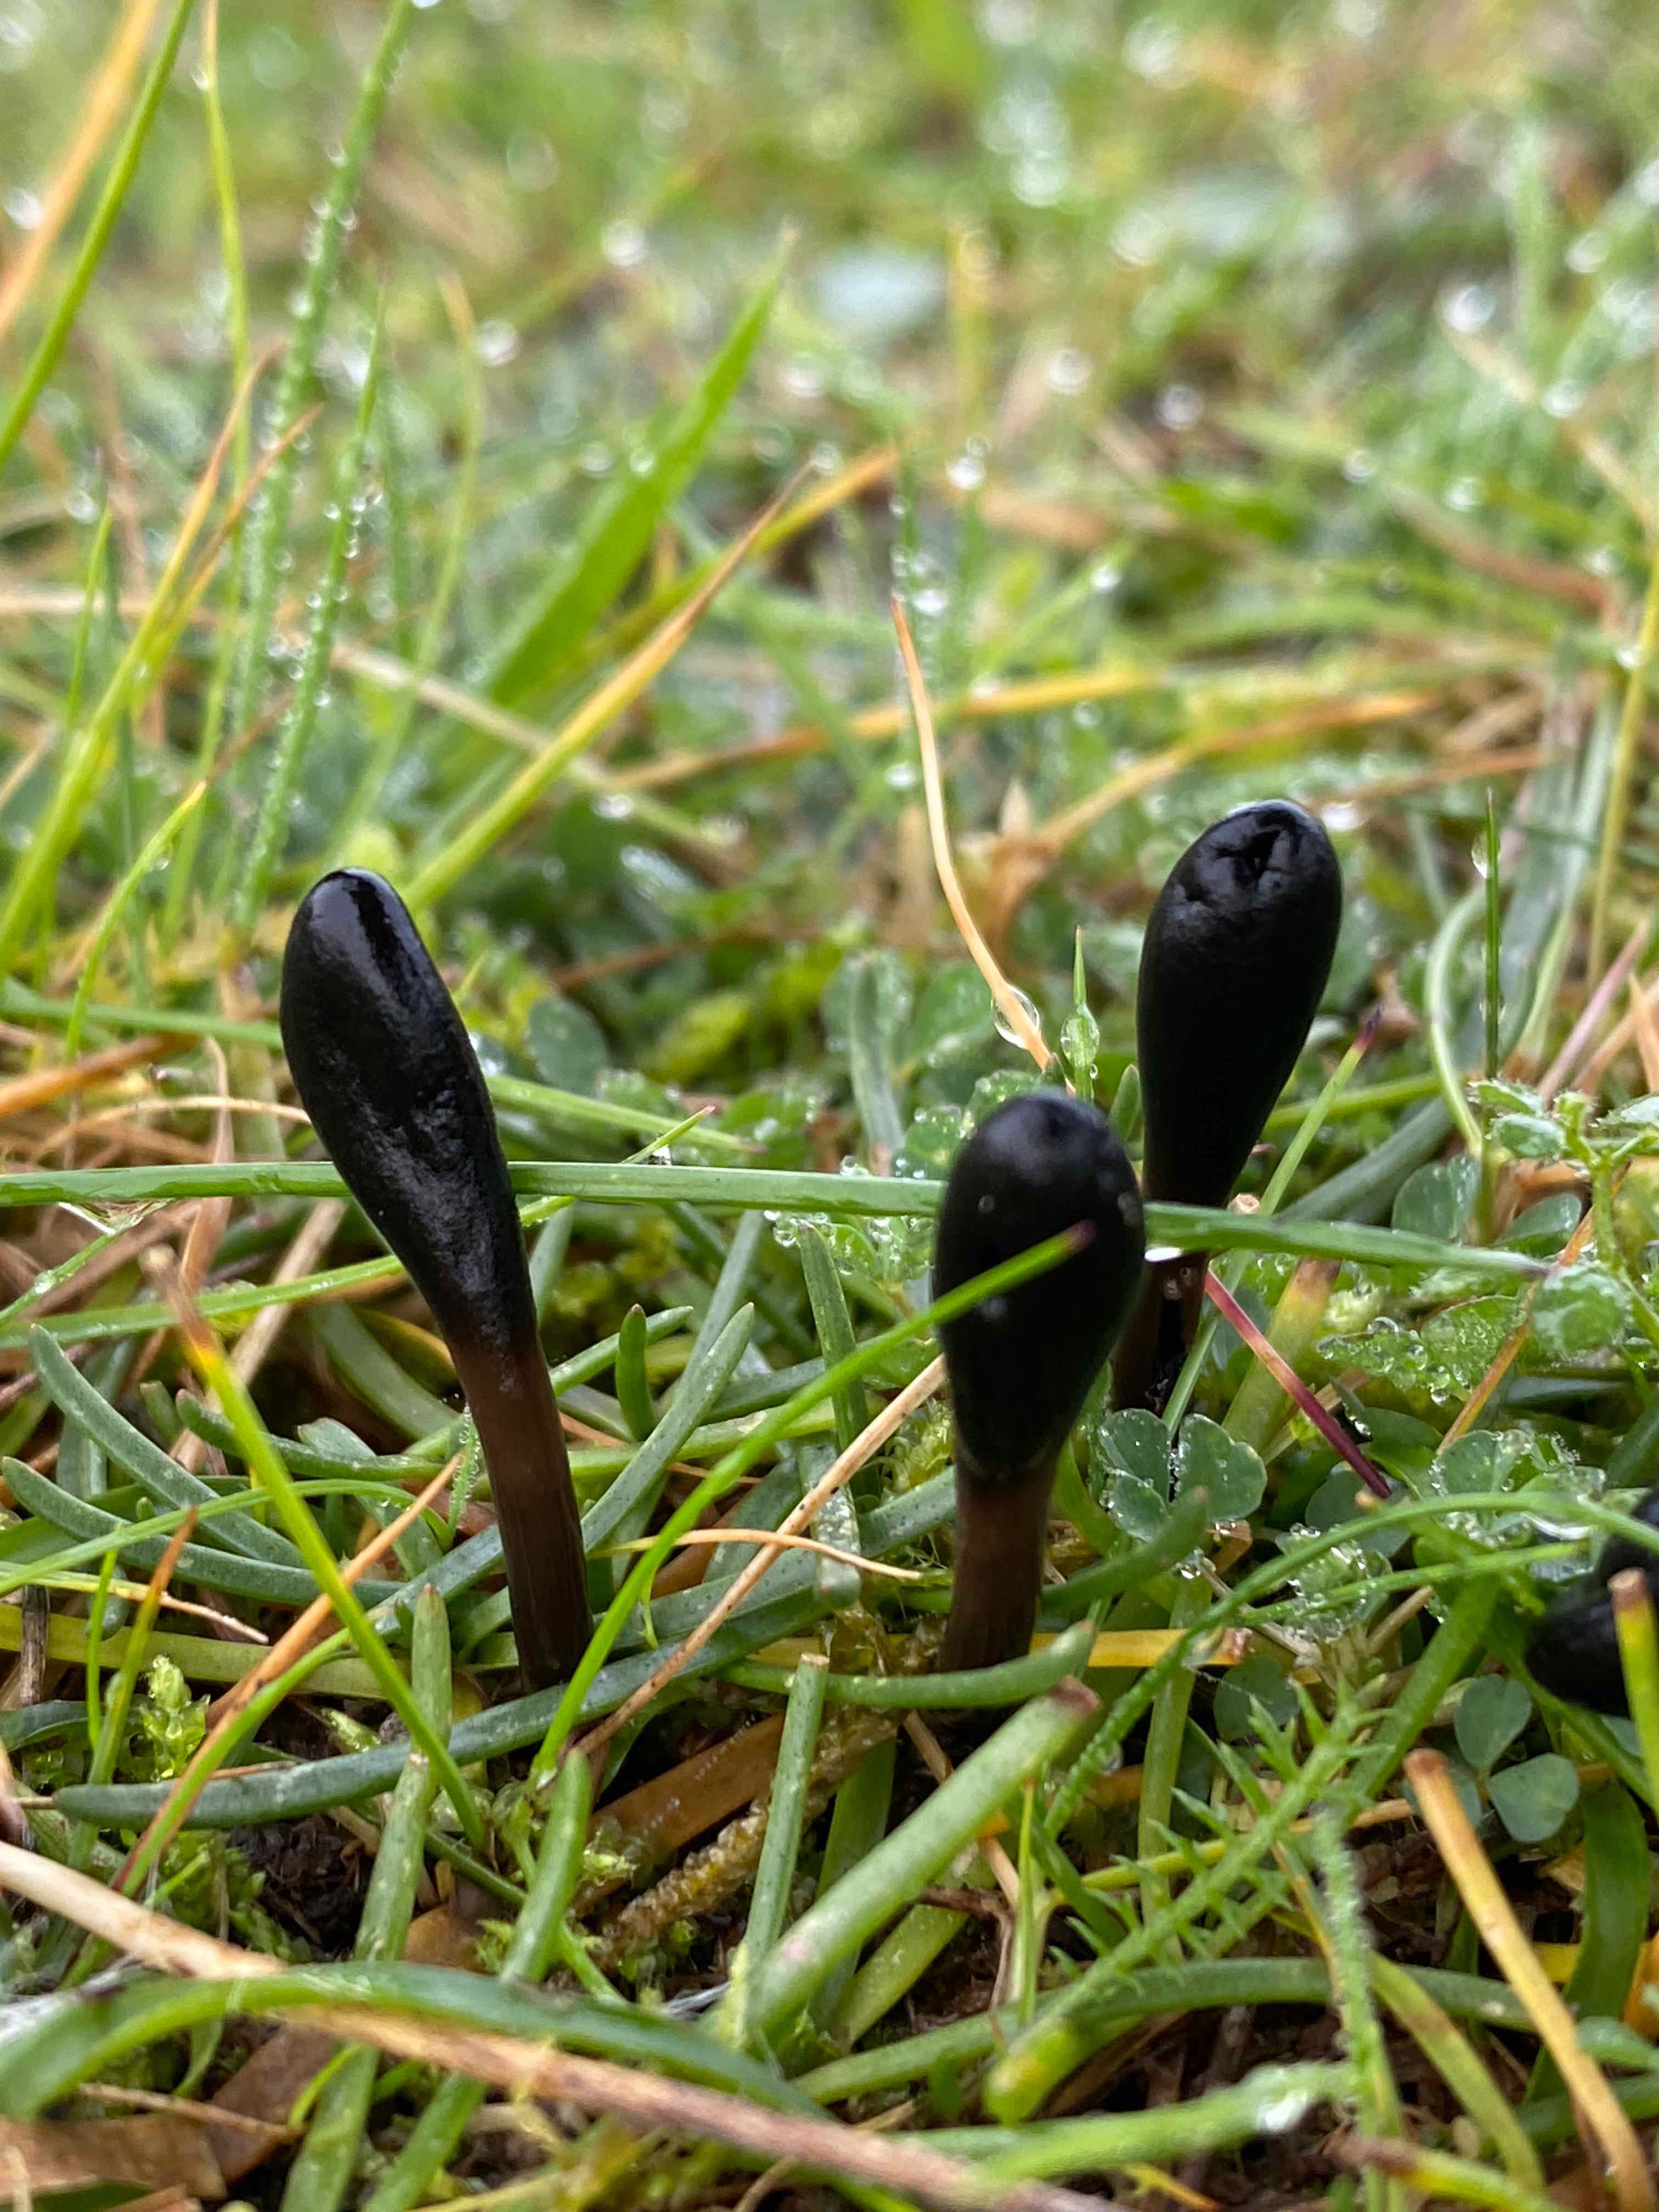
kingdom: Fungi
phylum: Ascomycota
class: Geoglossomycetes
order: Geoglossales
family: Geoglossaceae
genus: Glutinoglossum
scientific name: Glutinoglossum
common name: jordtunge
